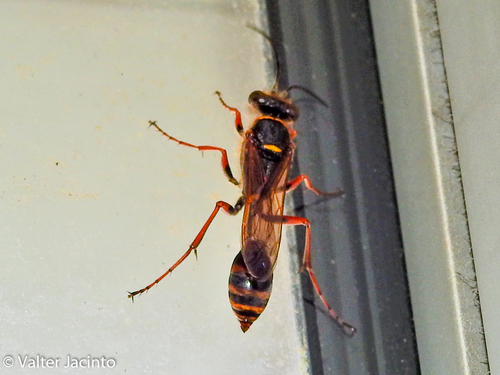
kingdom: Animalia
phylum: Arthropoda
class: Insecta
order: Hymenoptera
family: Sphecidae
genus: Sceliphron
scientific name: Sceliphron curvatum
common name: Pèlopèe
